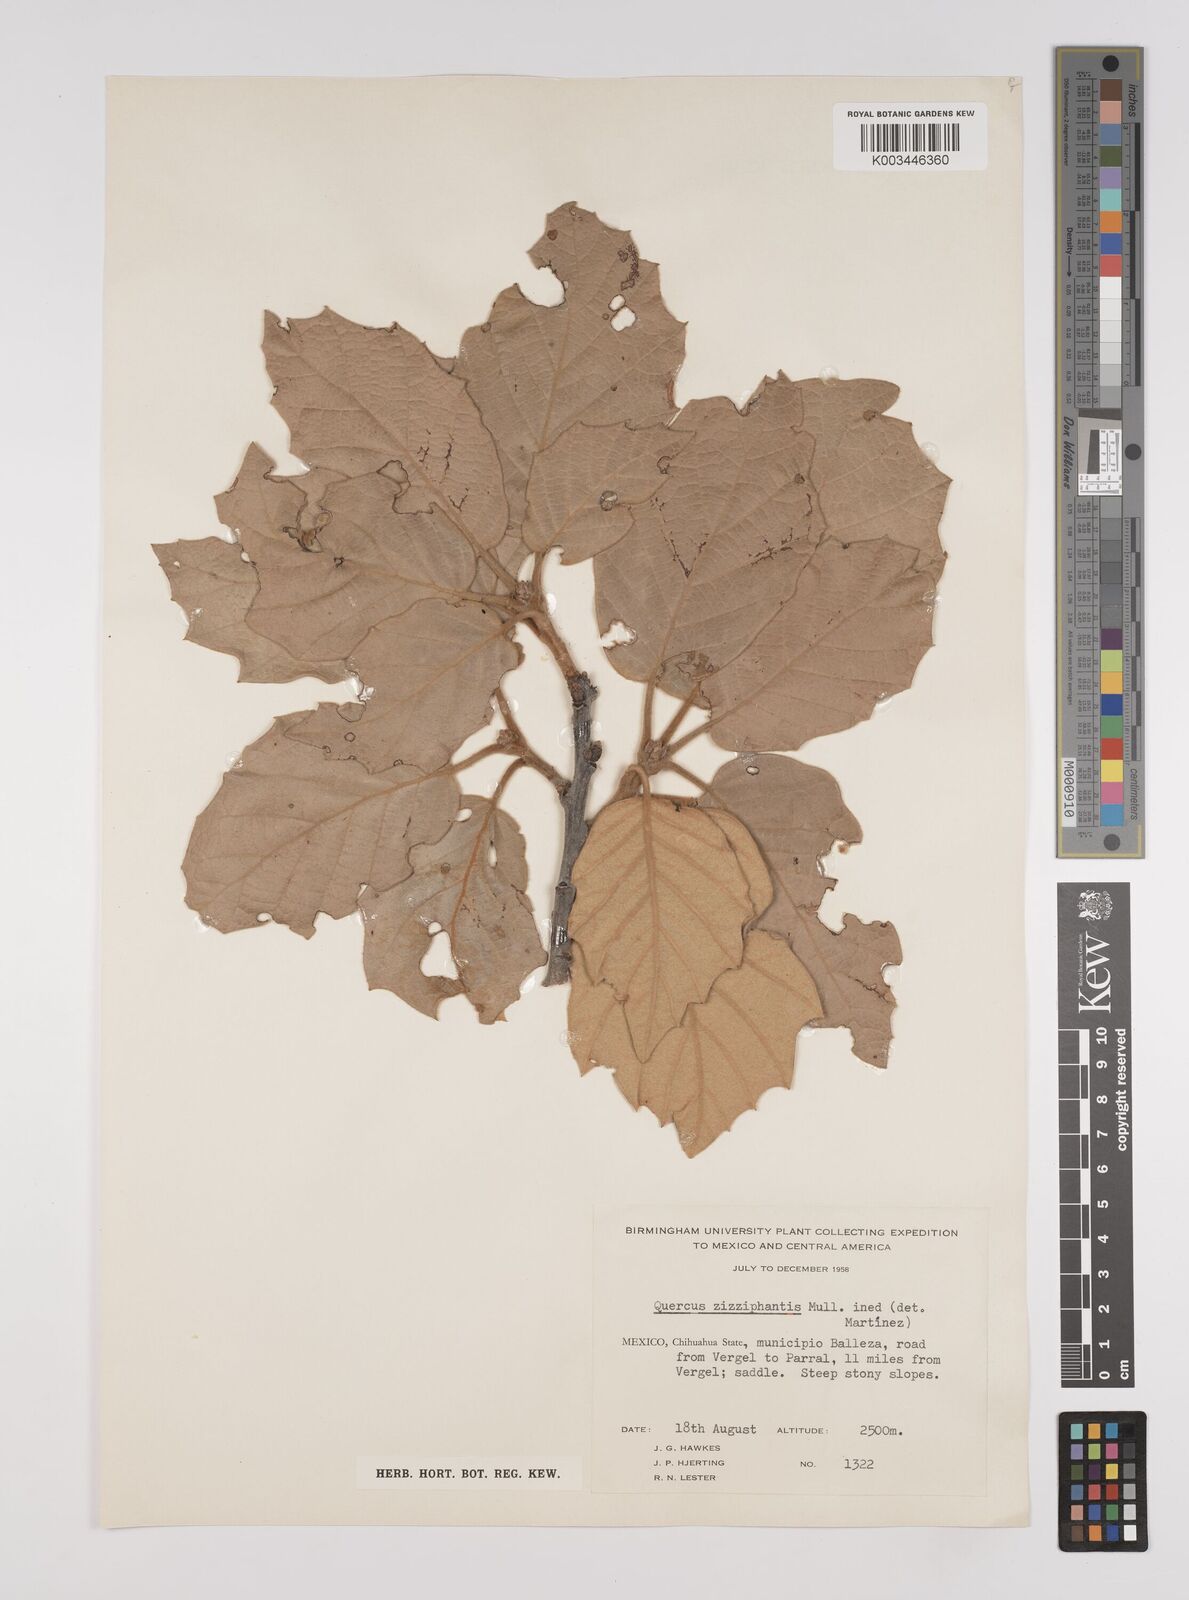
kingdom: Plantae
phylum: Tracheophyta
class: Magnoliopsida
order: Fagales
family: Fagaceae
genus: Quercus
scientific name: Quercus
